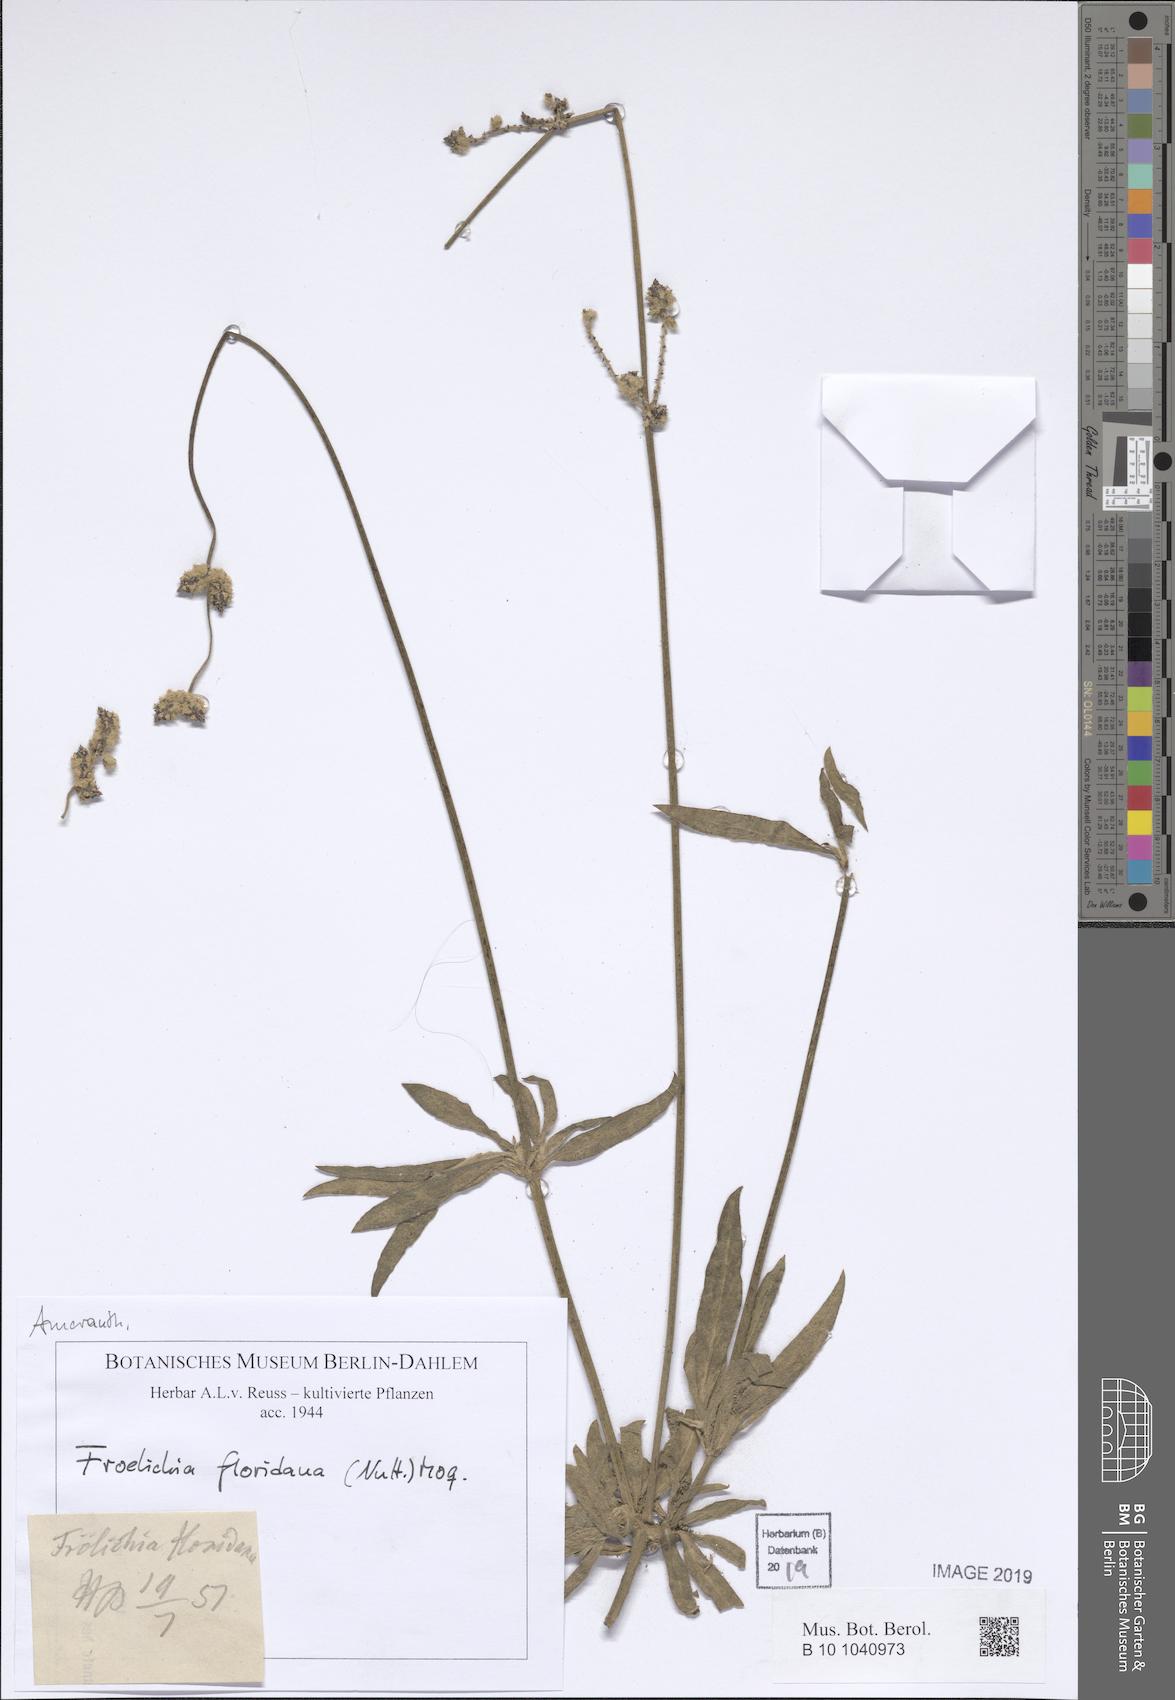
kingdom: Plantae
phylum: Tracheophyta
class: Magnoliopsida
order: Caryophyllales
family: Amaranthaceae
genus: Froelichia
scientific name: Froelichia floridana
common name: Florida snake-cotton
